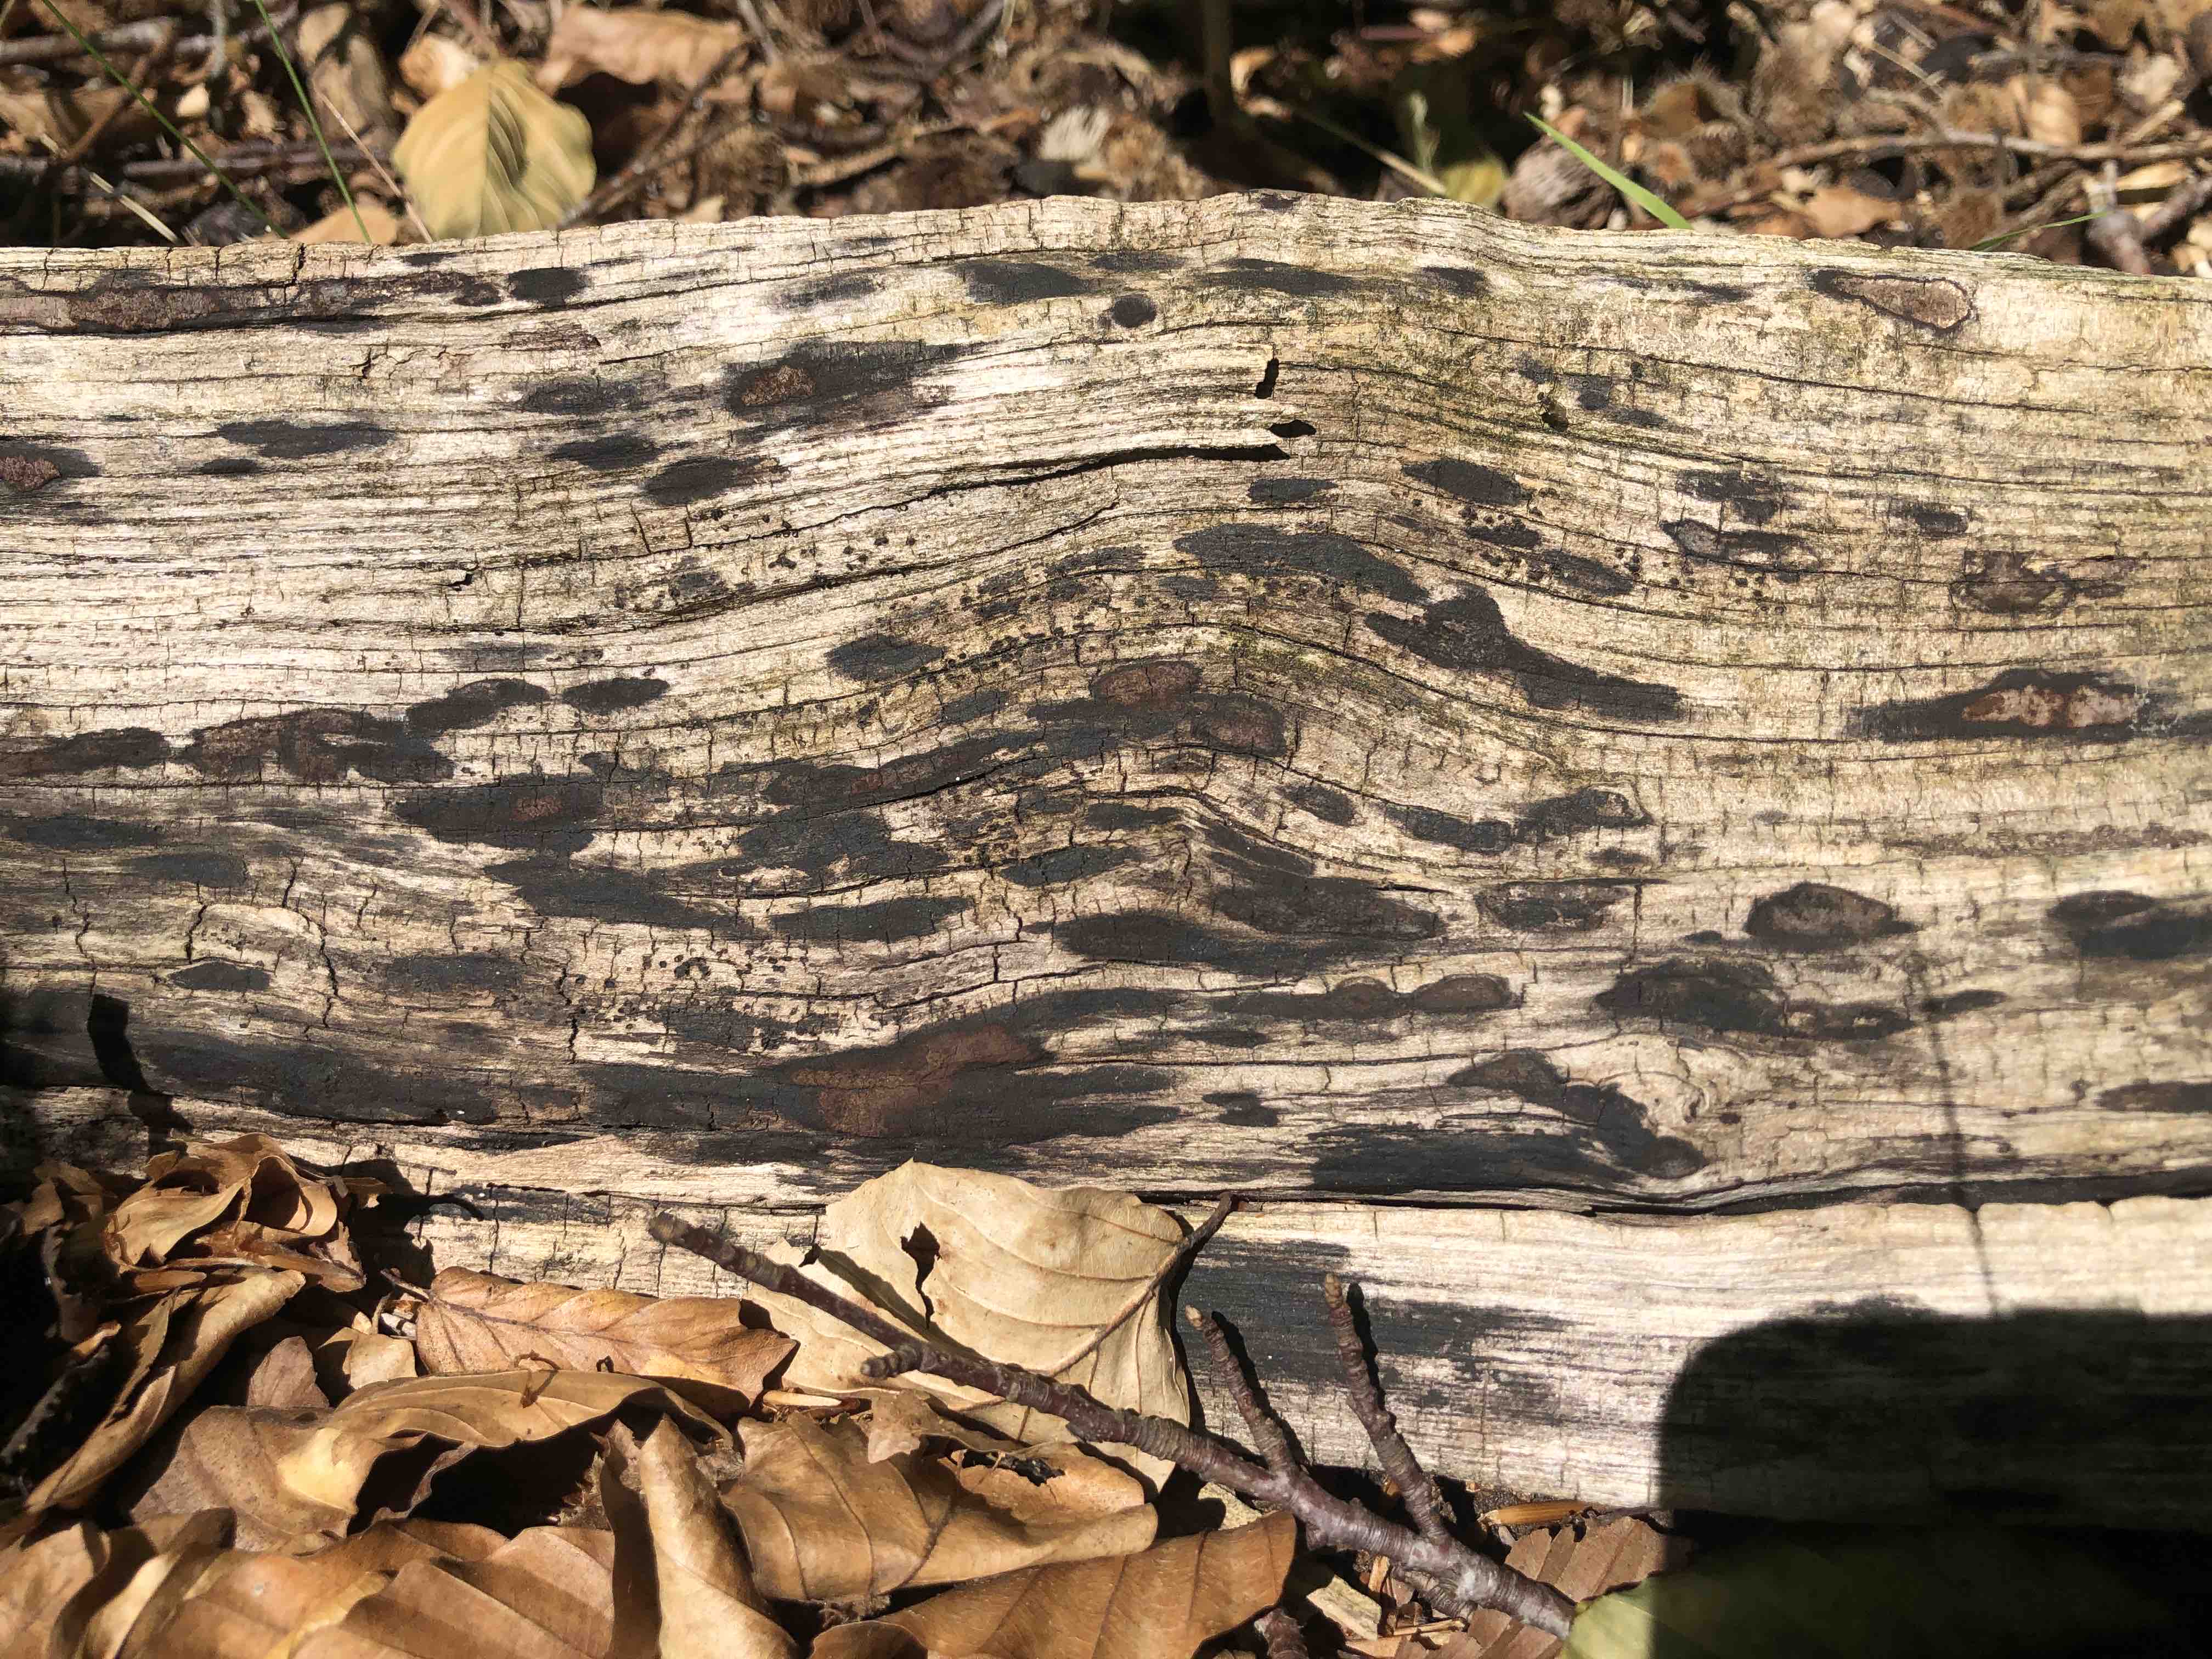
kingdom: Fungi
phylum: Ascomycota
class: Sordariomycetes
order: Xylariales
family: Hypoxylaceae
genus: Hypoxylon
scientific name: Hypoxylon petriniae
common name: nedsænket kulbær
